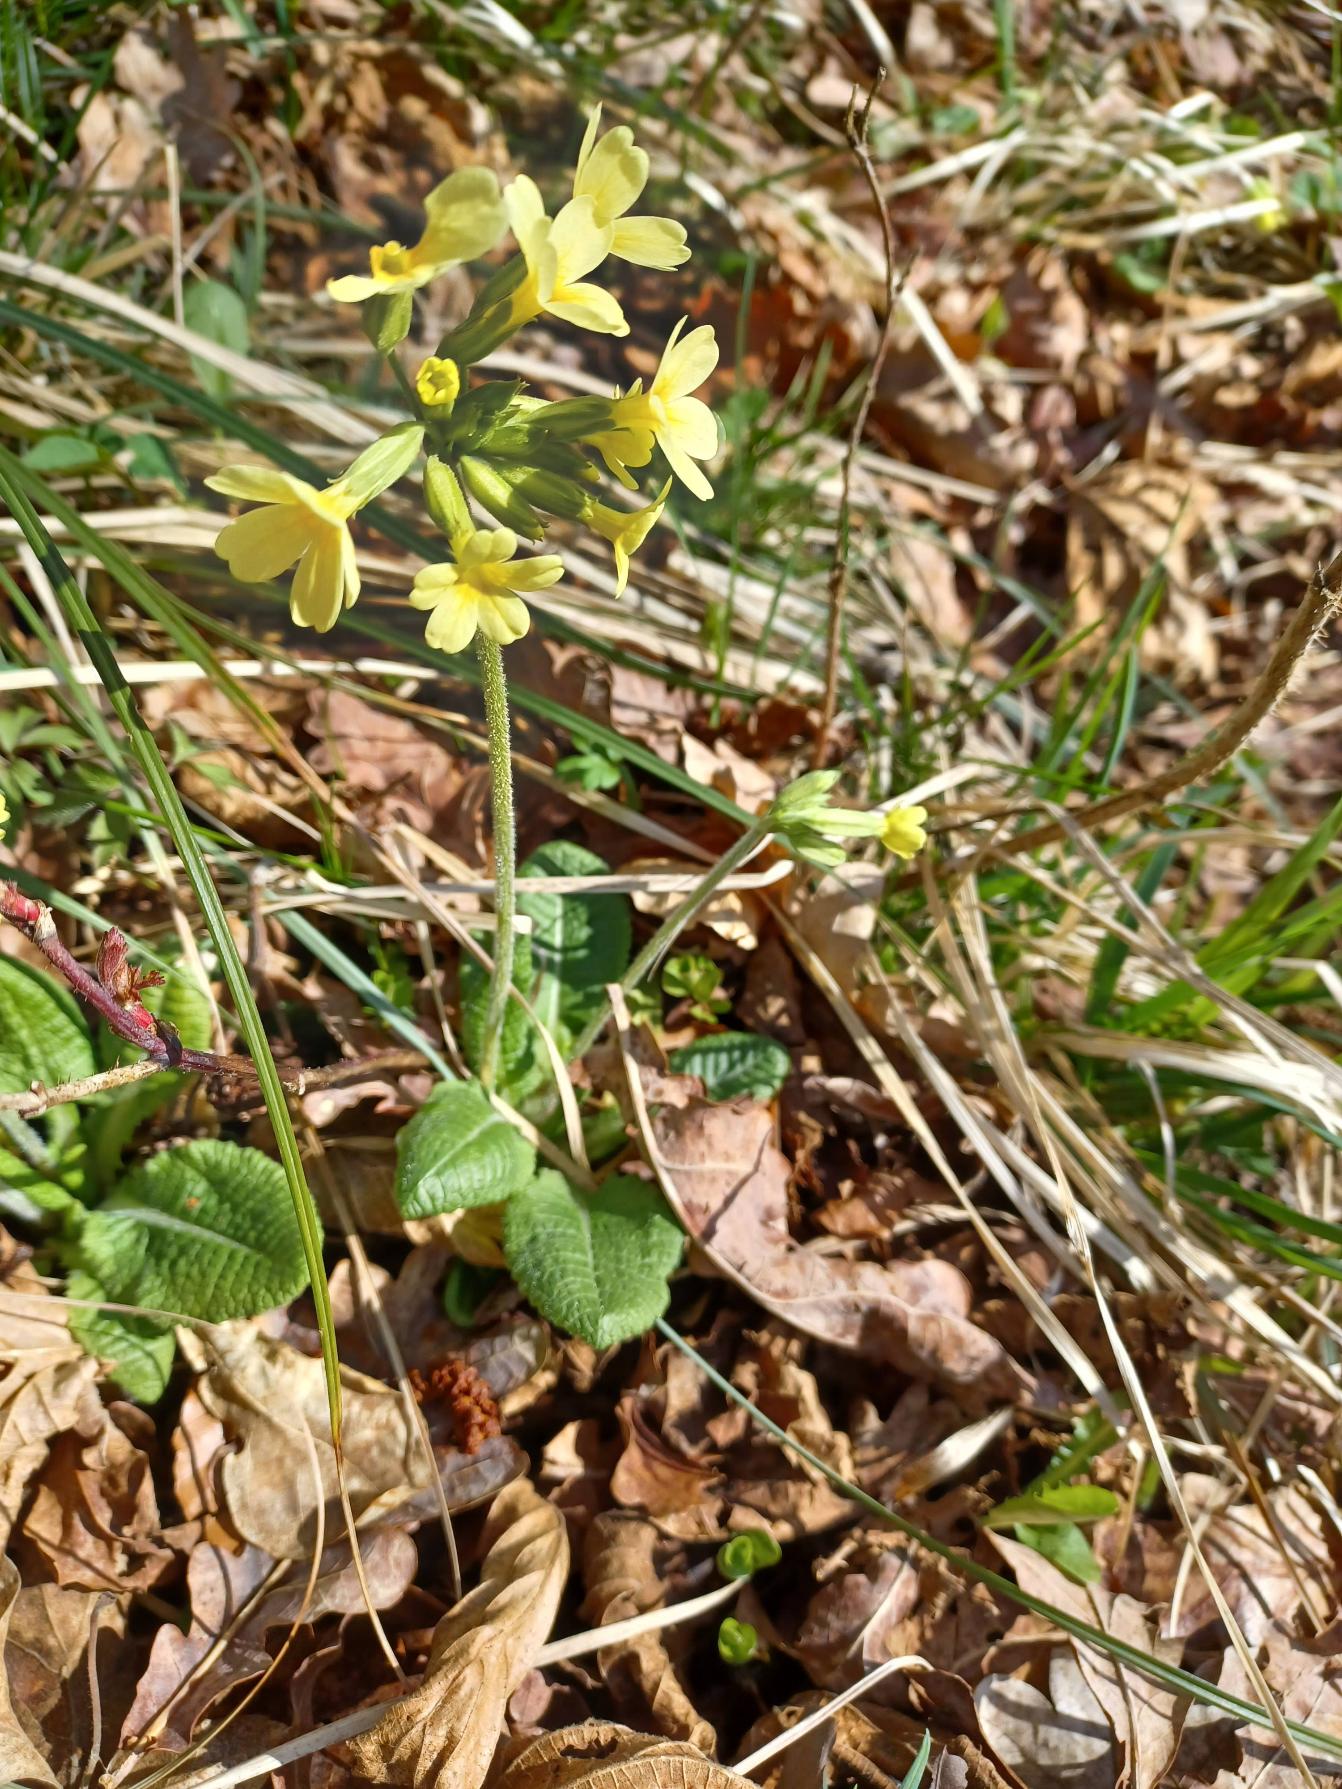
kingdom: Plantae
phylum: Tracheophyta
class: Magnoliopsida
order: Ericales
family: Primulaceae
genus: Primula
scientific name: Primula elatior
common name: Fladkravet kodriver
